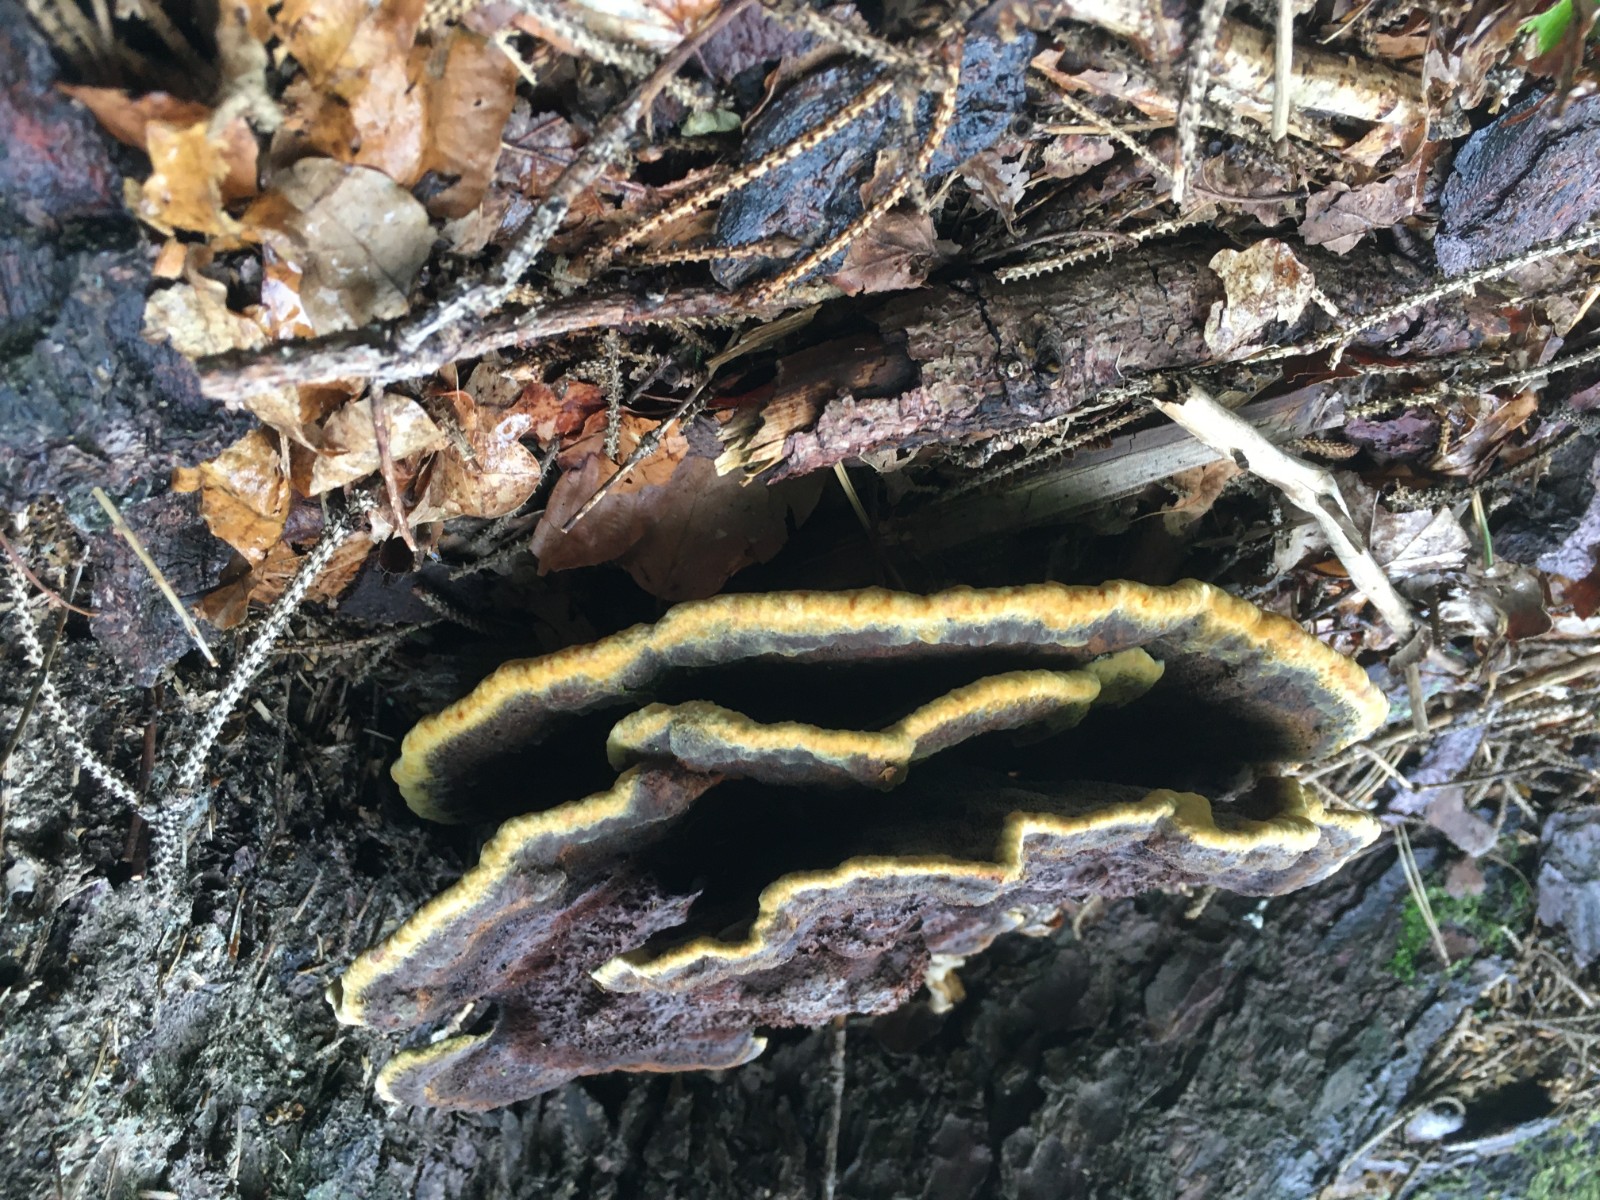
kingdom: Fungi
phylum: Basidiomycota
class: Agaricomycetes
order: Polyporales
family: Laetiporaceae
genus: Phaeolus
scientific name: Phaeolus schweinitzii
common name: brunporesvamp
